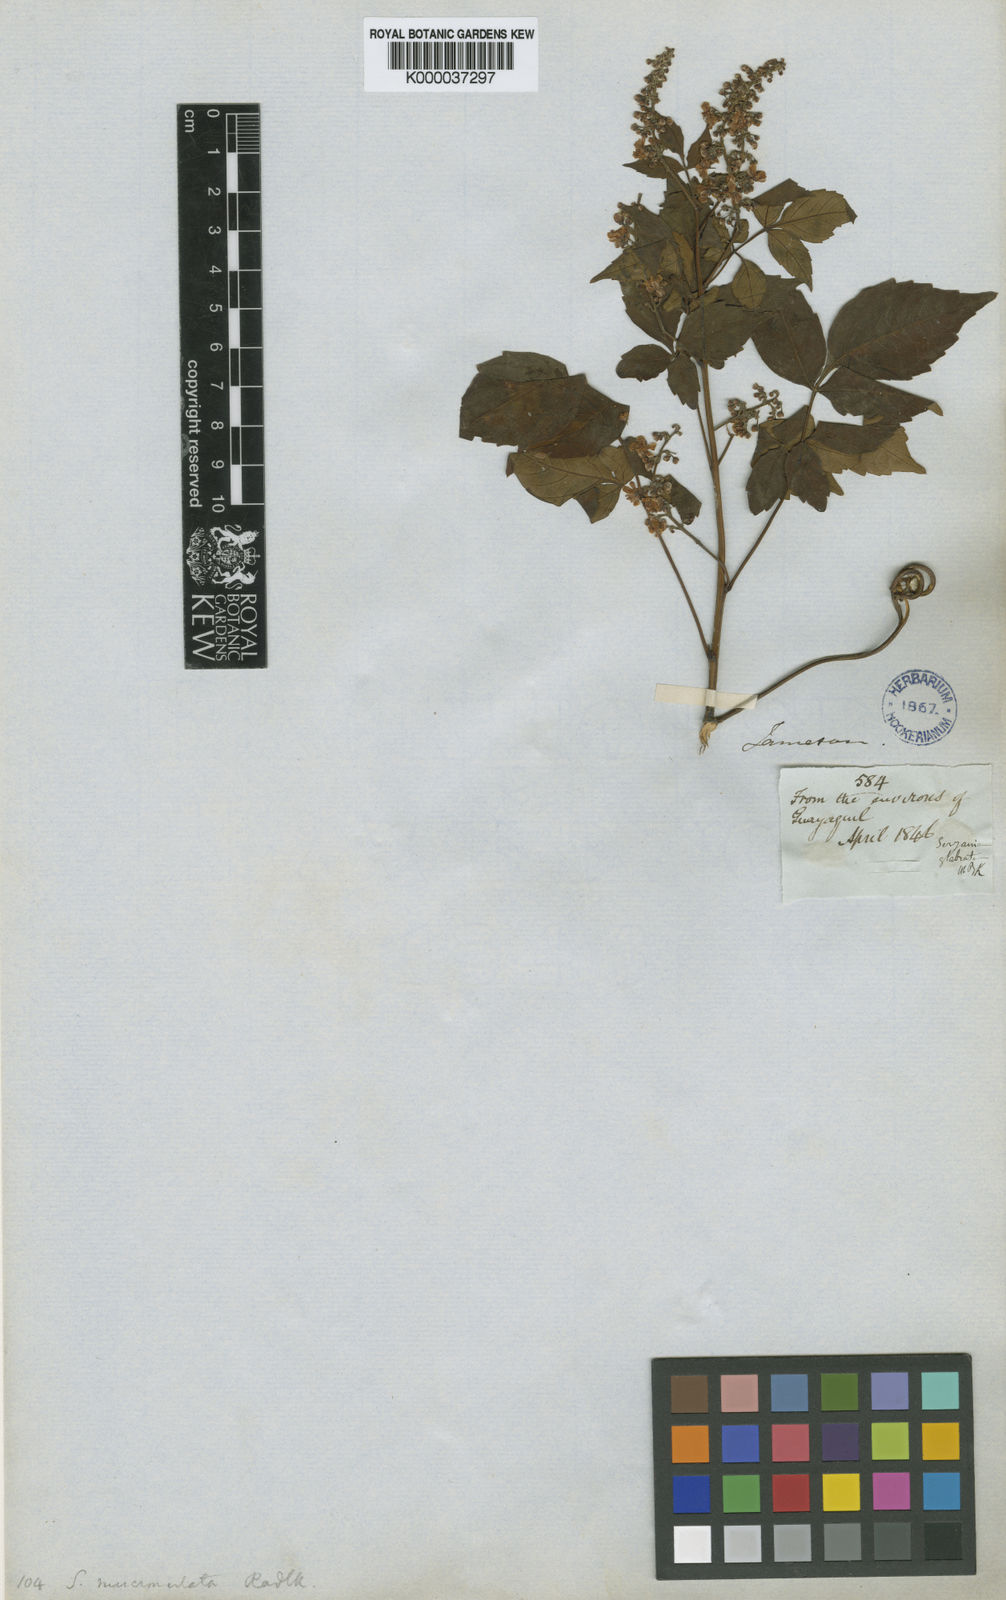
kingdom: Plantae
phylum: Tracheophyta
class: Magnoliopsida
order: Sapindales
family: Sapindaceae
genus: Serjania
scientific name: Serjania mucronulata
